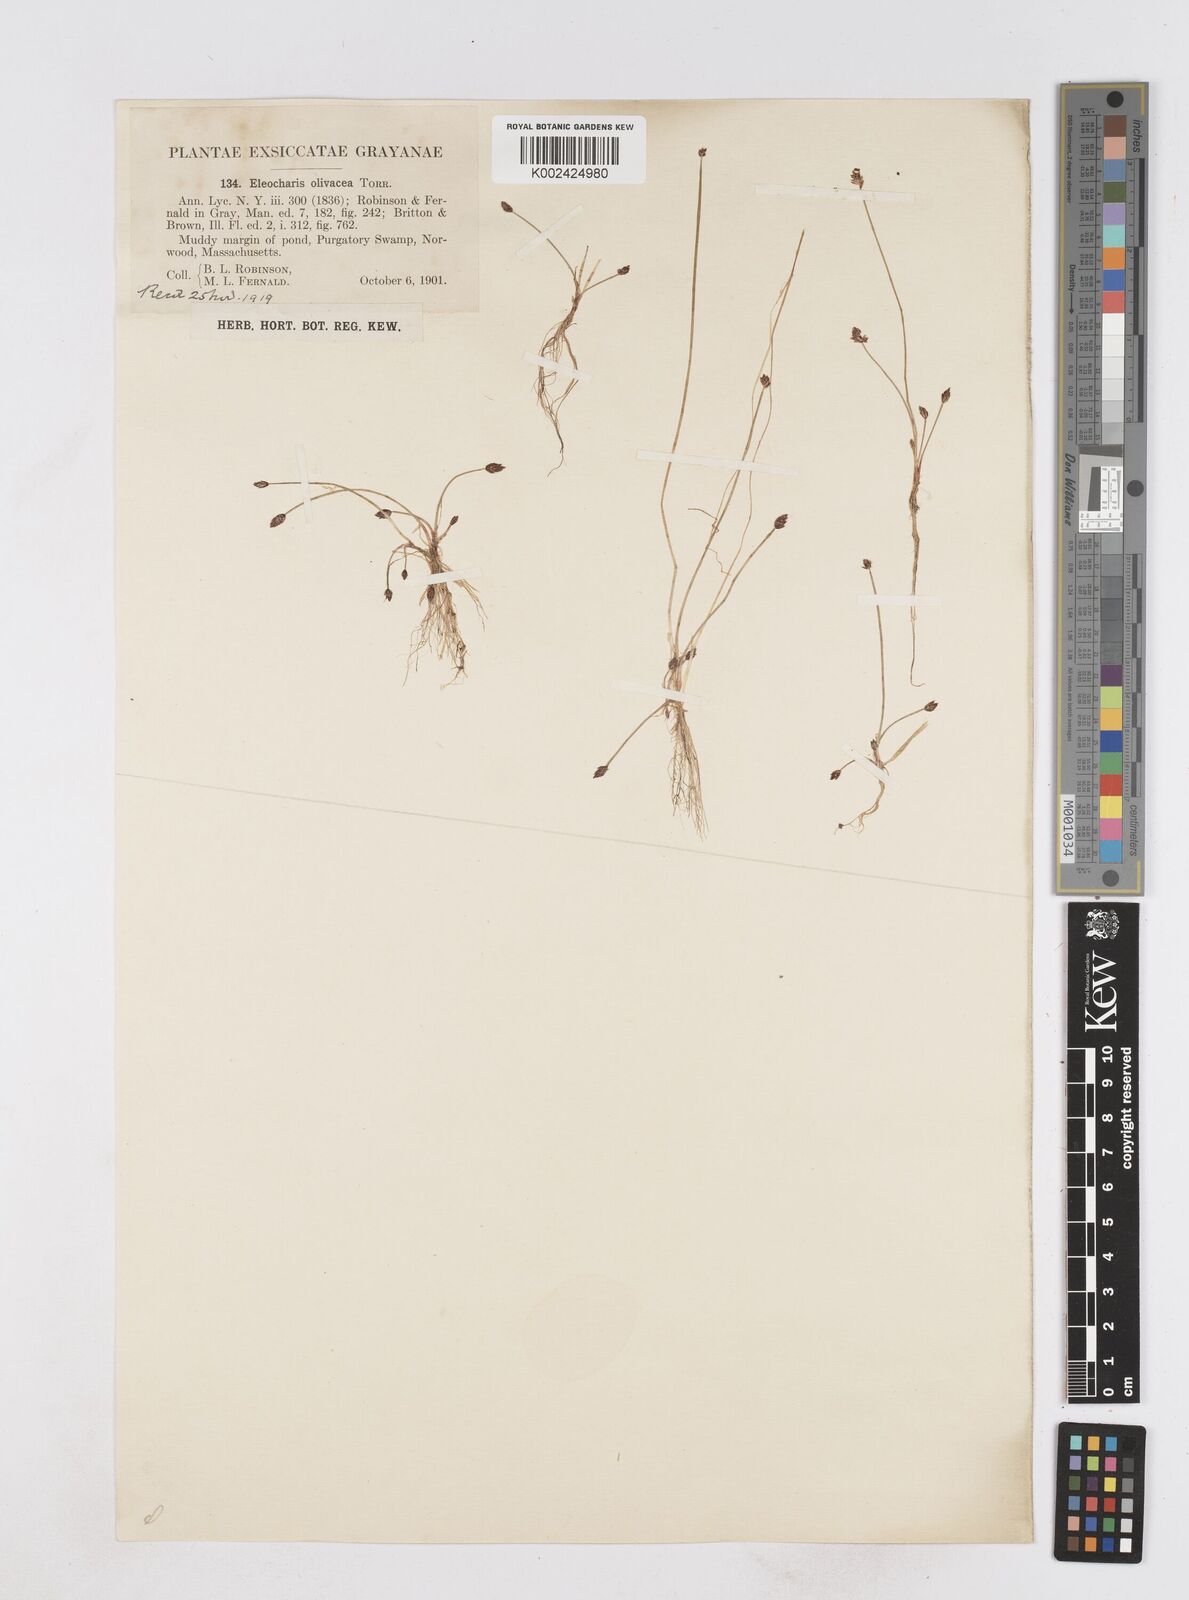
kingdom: Plantae
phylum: Tracheophyta
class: Liliopsida
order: Poales
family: Cyperaceae
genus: Eleocharis
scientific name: Eleocharis flavescens
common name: Yellow spikerush
